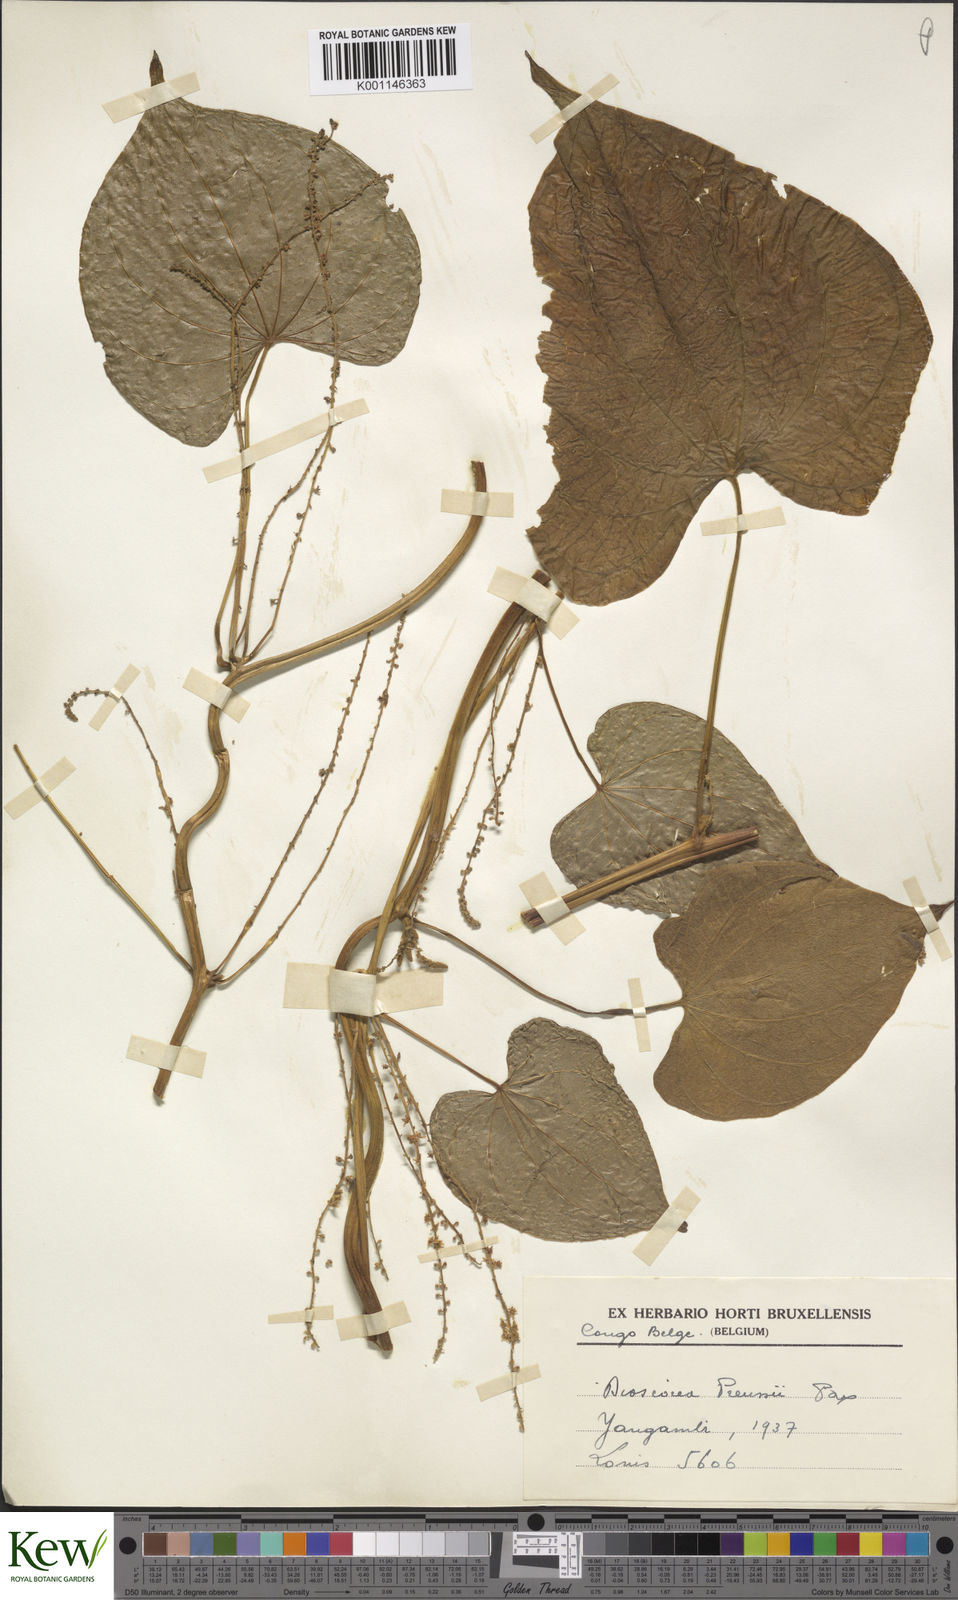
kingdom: Plantae
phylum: Tracheophyta
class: Liliopsida
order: Dioscoreales
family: Dioscoreaceae
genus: Dioscorea
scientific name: Dioscorea preussii
